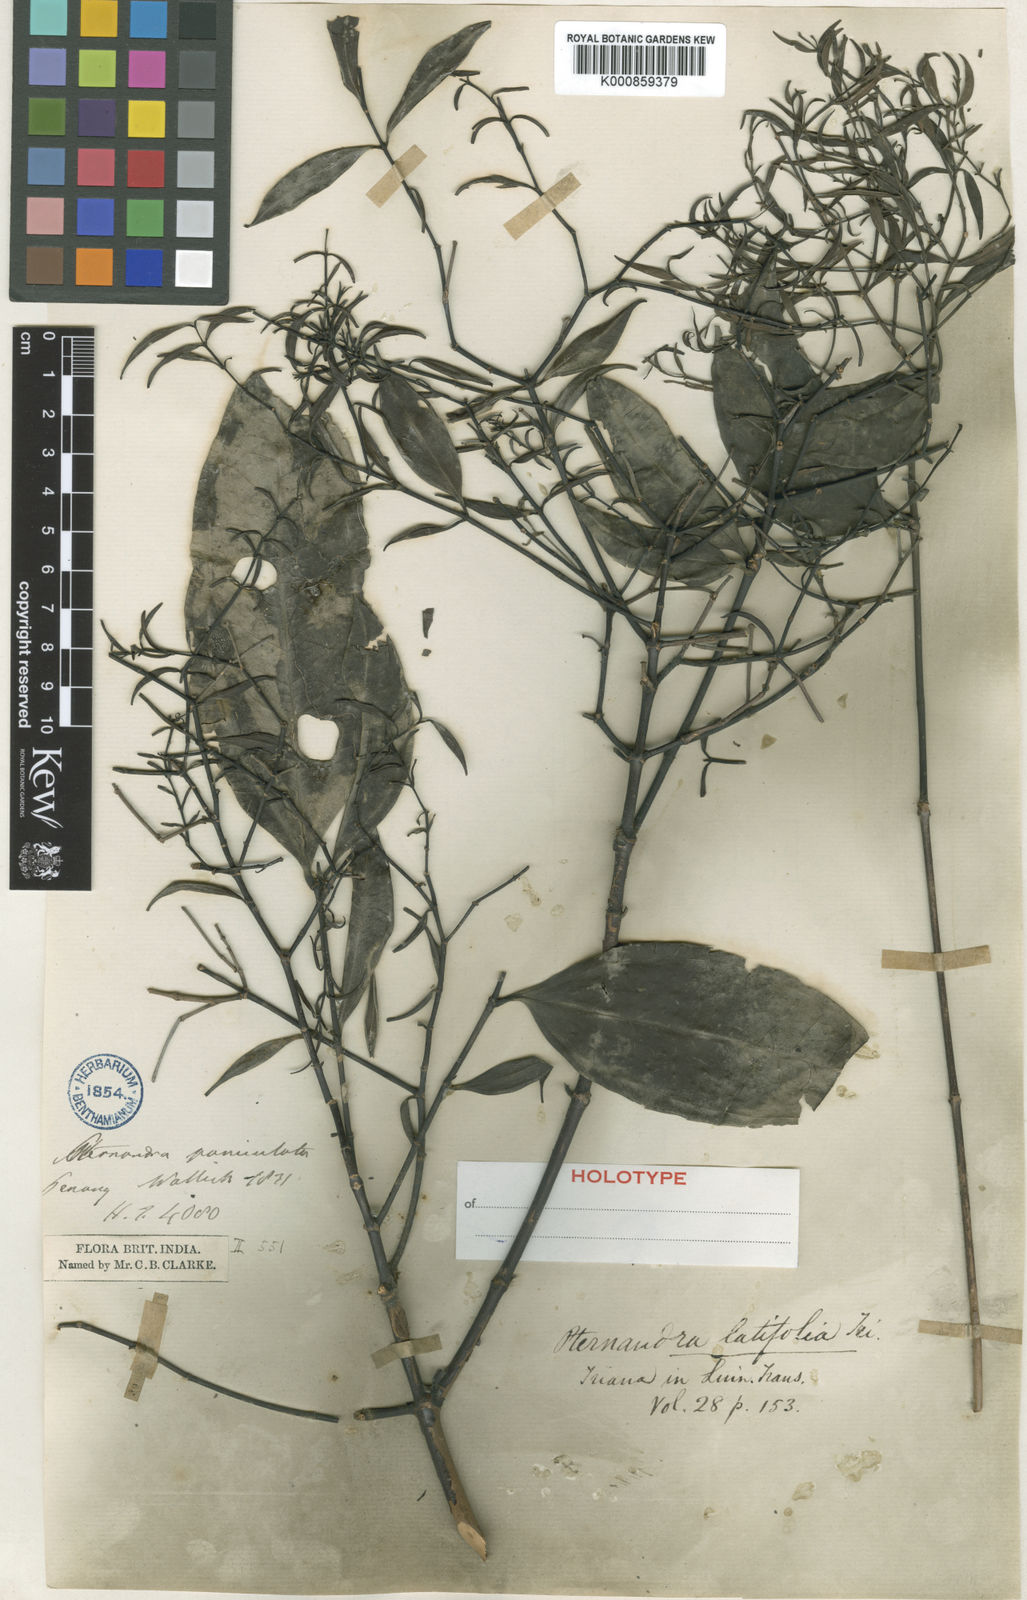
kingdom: Plantae
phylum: Tracheophyta
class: Magnoliopsida
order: Myrtales
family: Melastomataceae
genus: Pternandra
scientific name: Pternandra coerulescens
